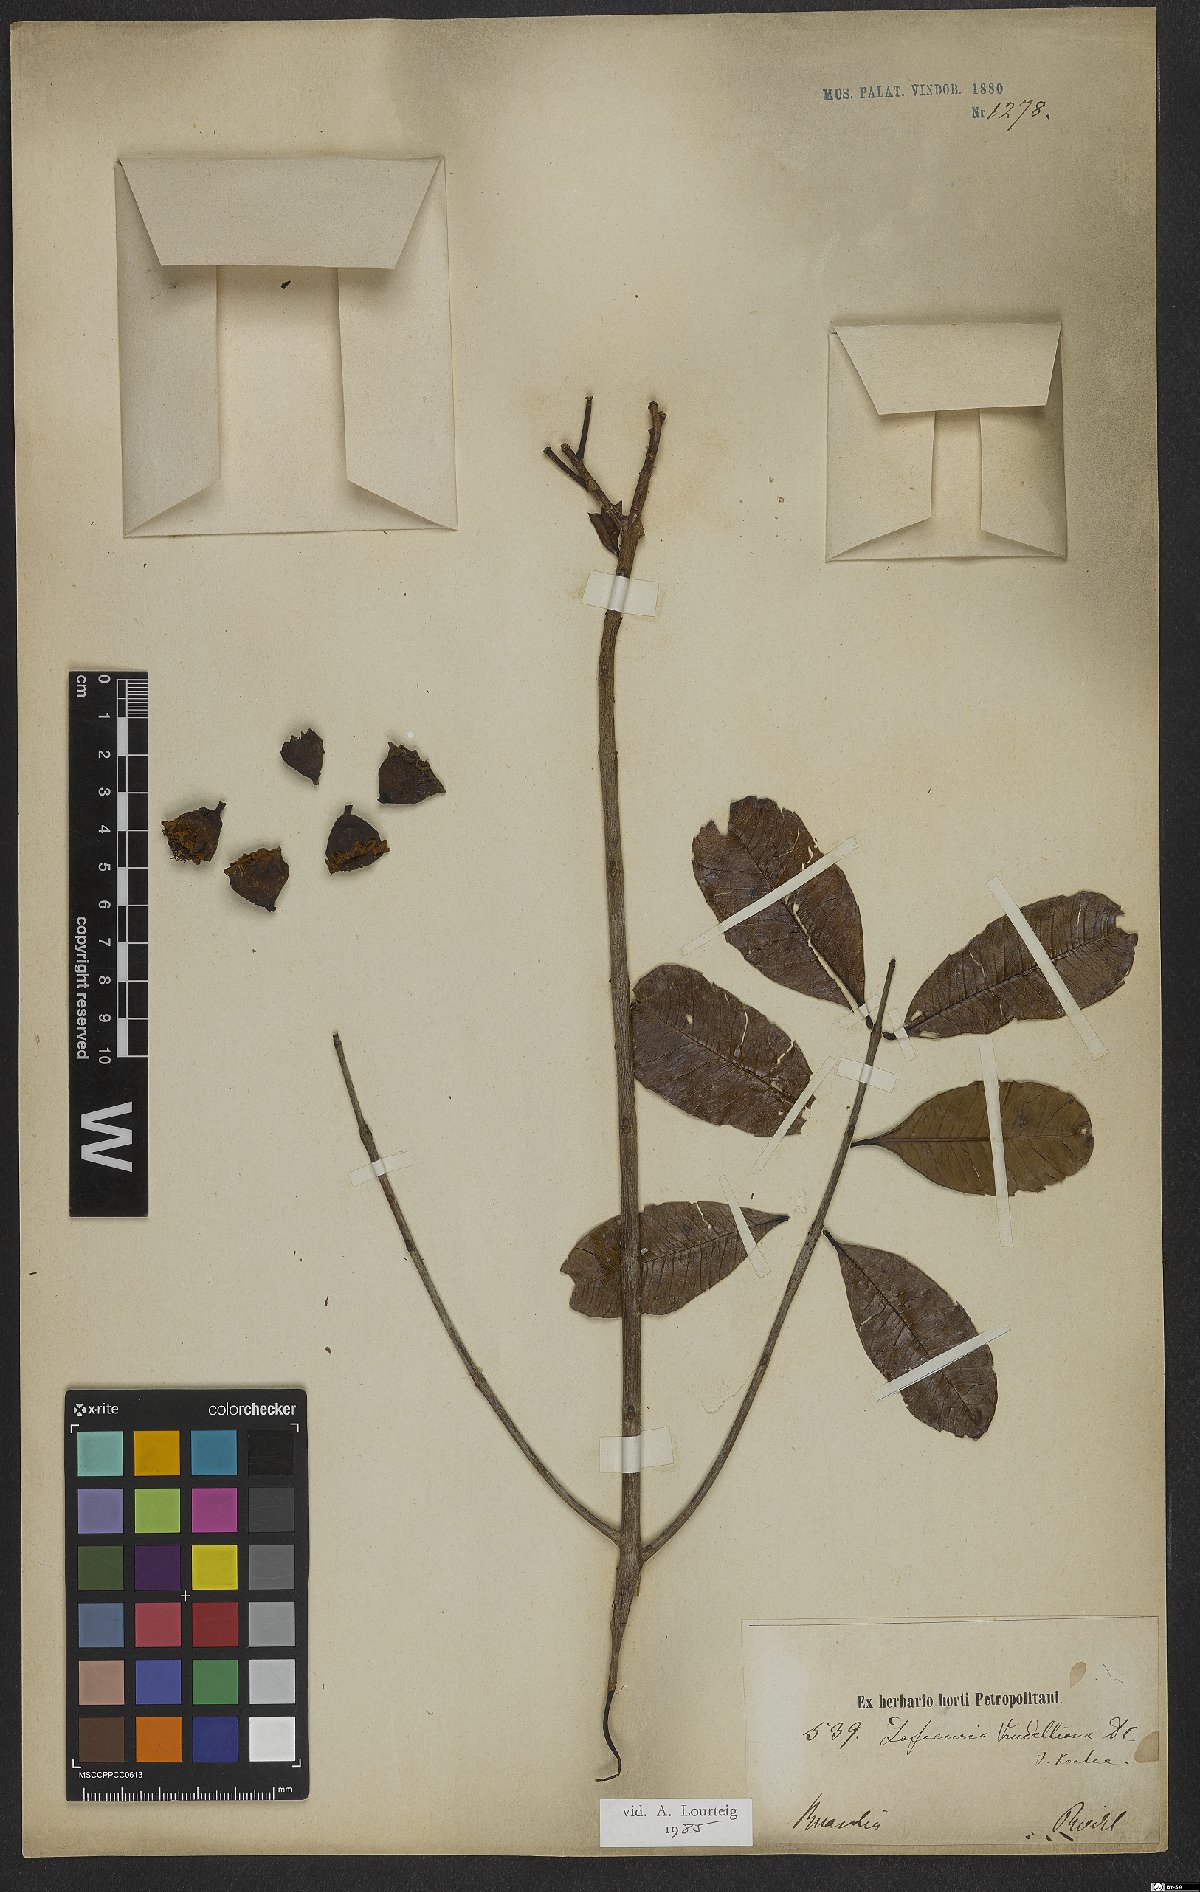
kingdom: Plantae
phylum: Tracheophyta
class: Magnoliopsida
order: Myrtales
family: Lythraceae
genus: Lafoensia
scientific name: Lafoensia vandelliana
